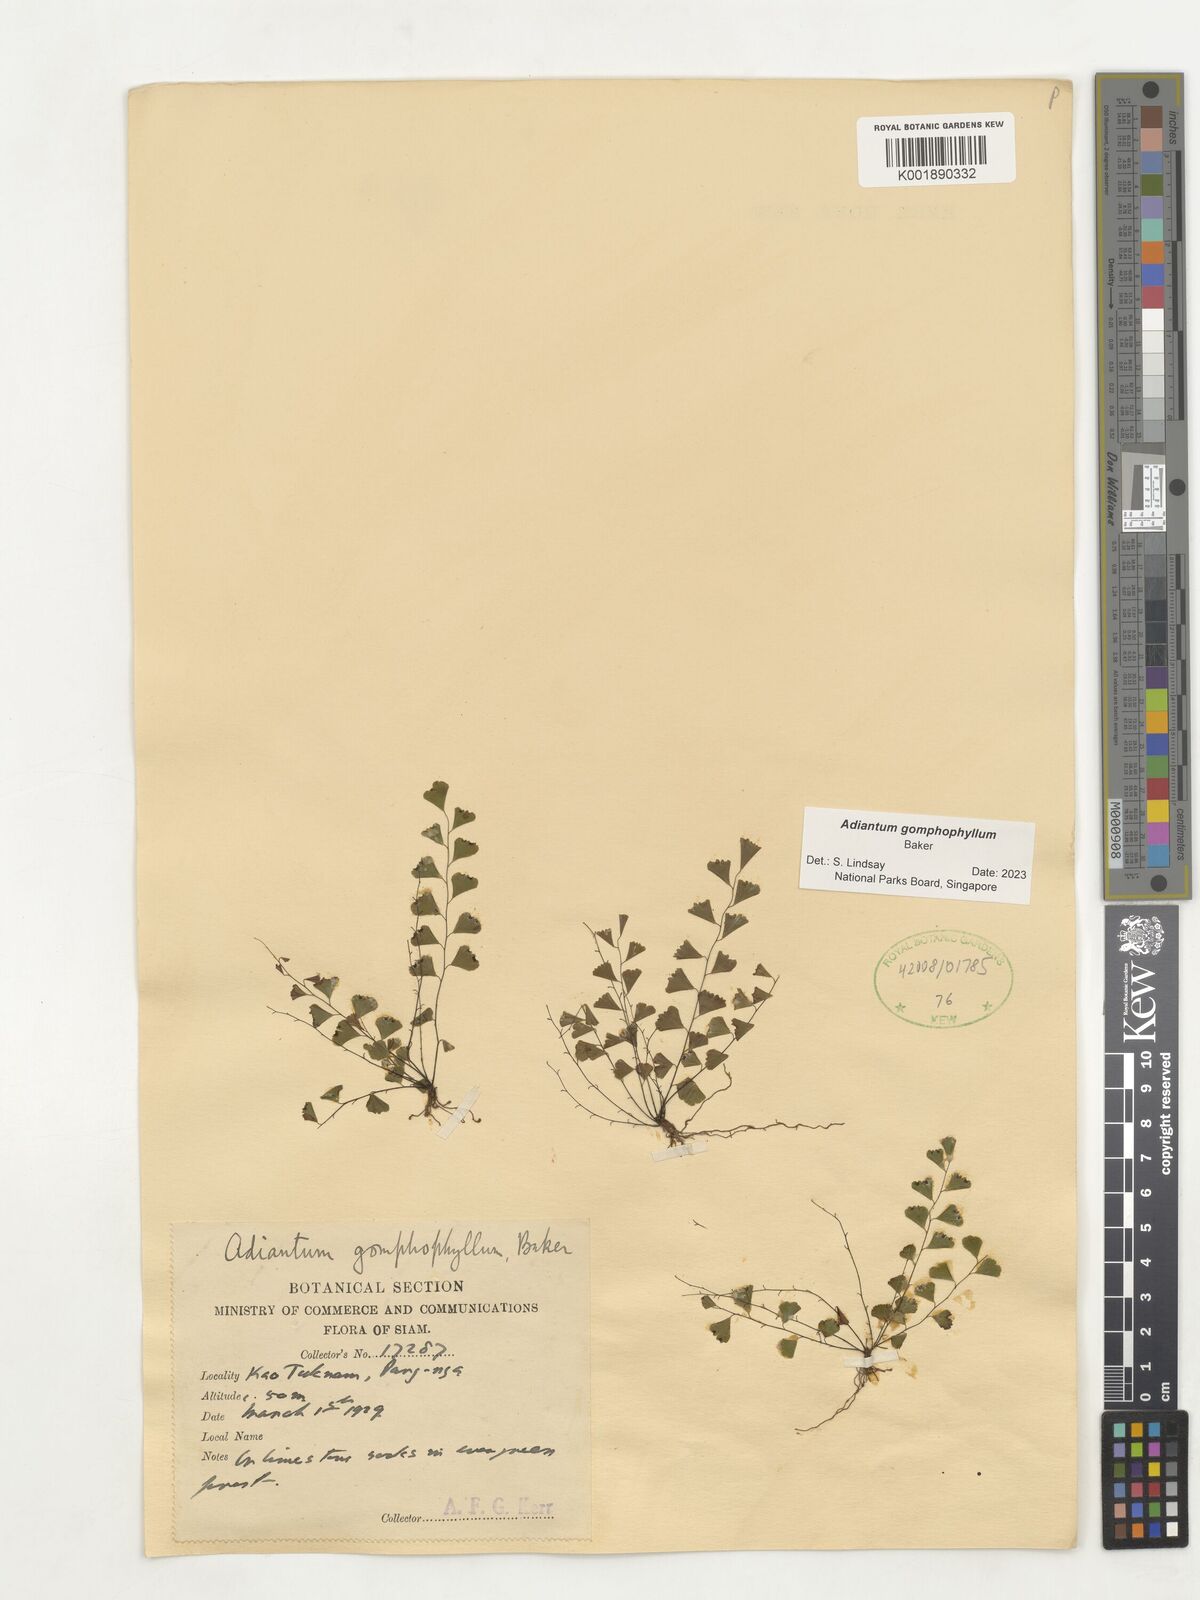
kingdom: Plantae
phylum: Tracheophyta
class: Polypodiopsida
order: Polypodiales
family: Pteridaceae
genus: Adiantum
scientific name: Adiantum gomphophyllum
